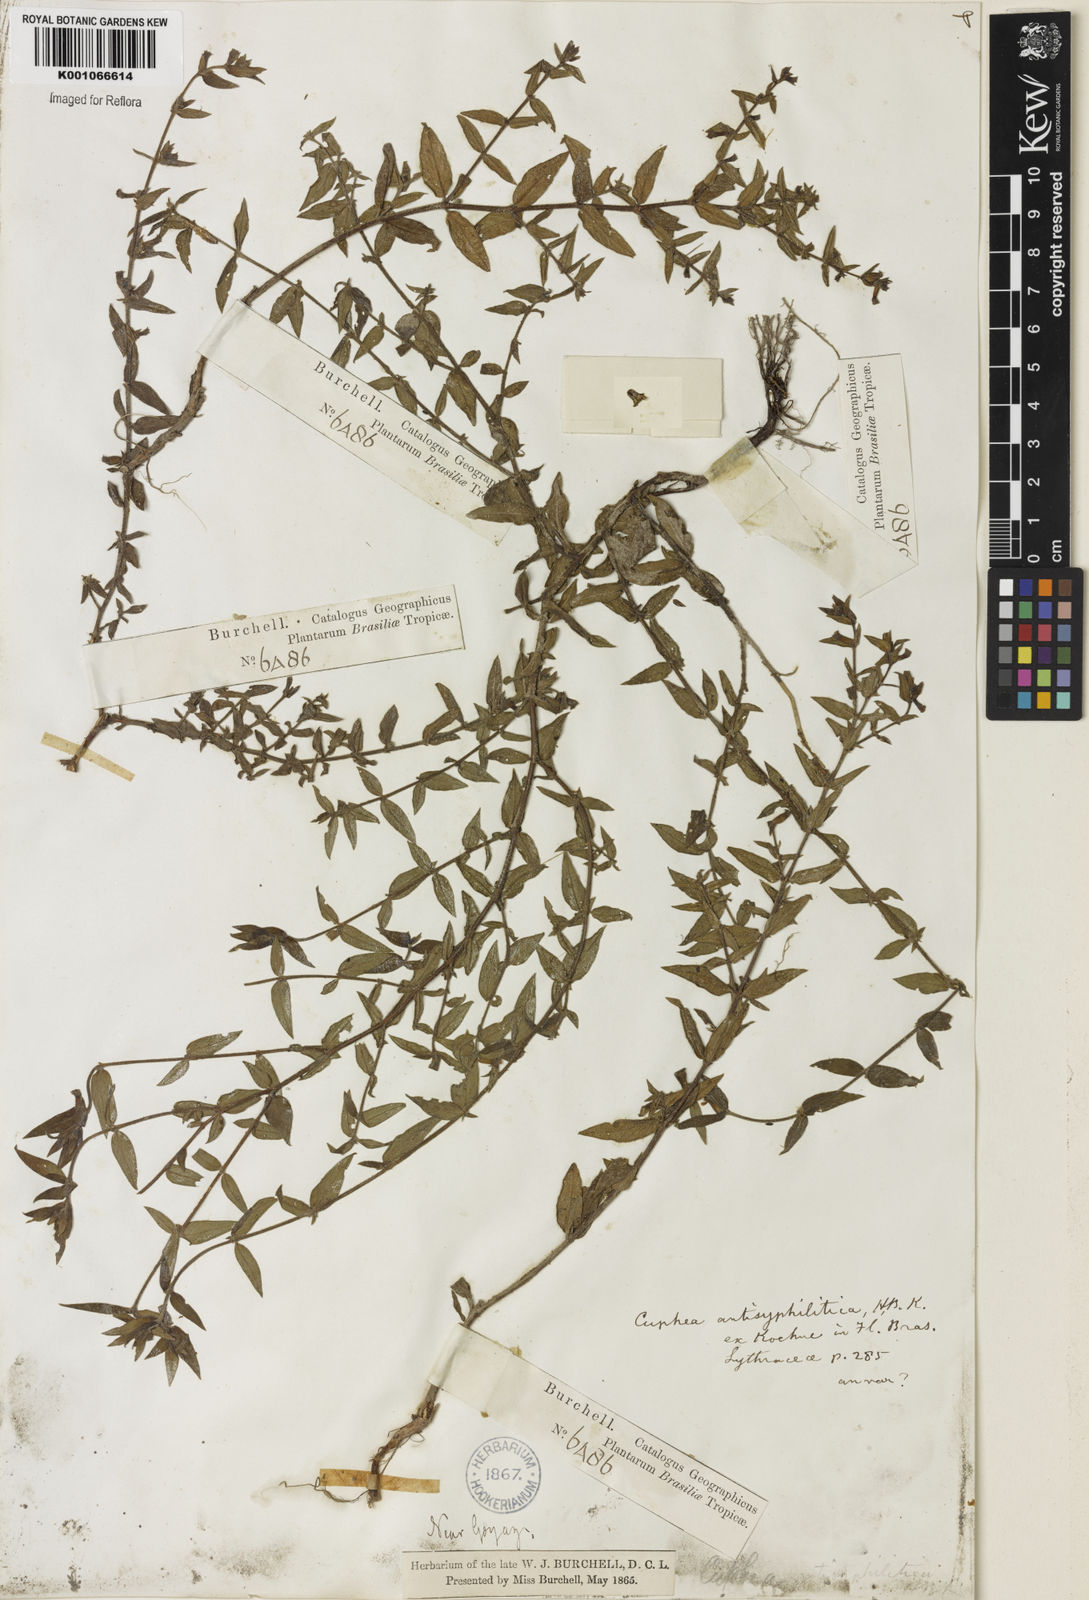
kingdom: Plantae
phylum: Tracheophyta
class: Magnoliopsida
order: Myrtales
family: Lythraceae
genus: Cuphea
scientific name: Cuphea antisyphilitica
